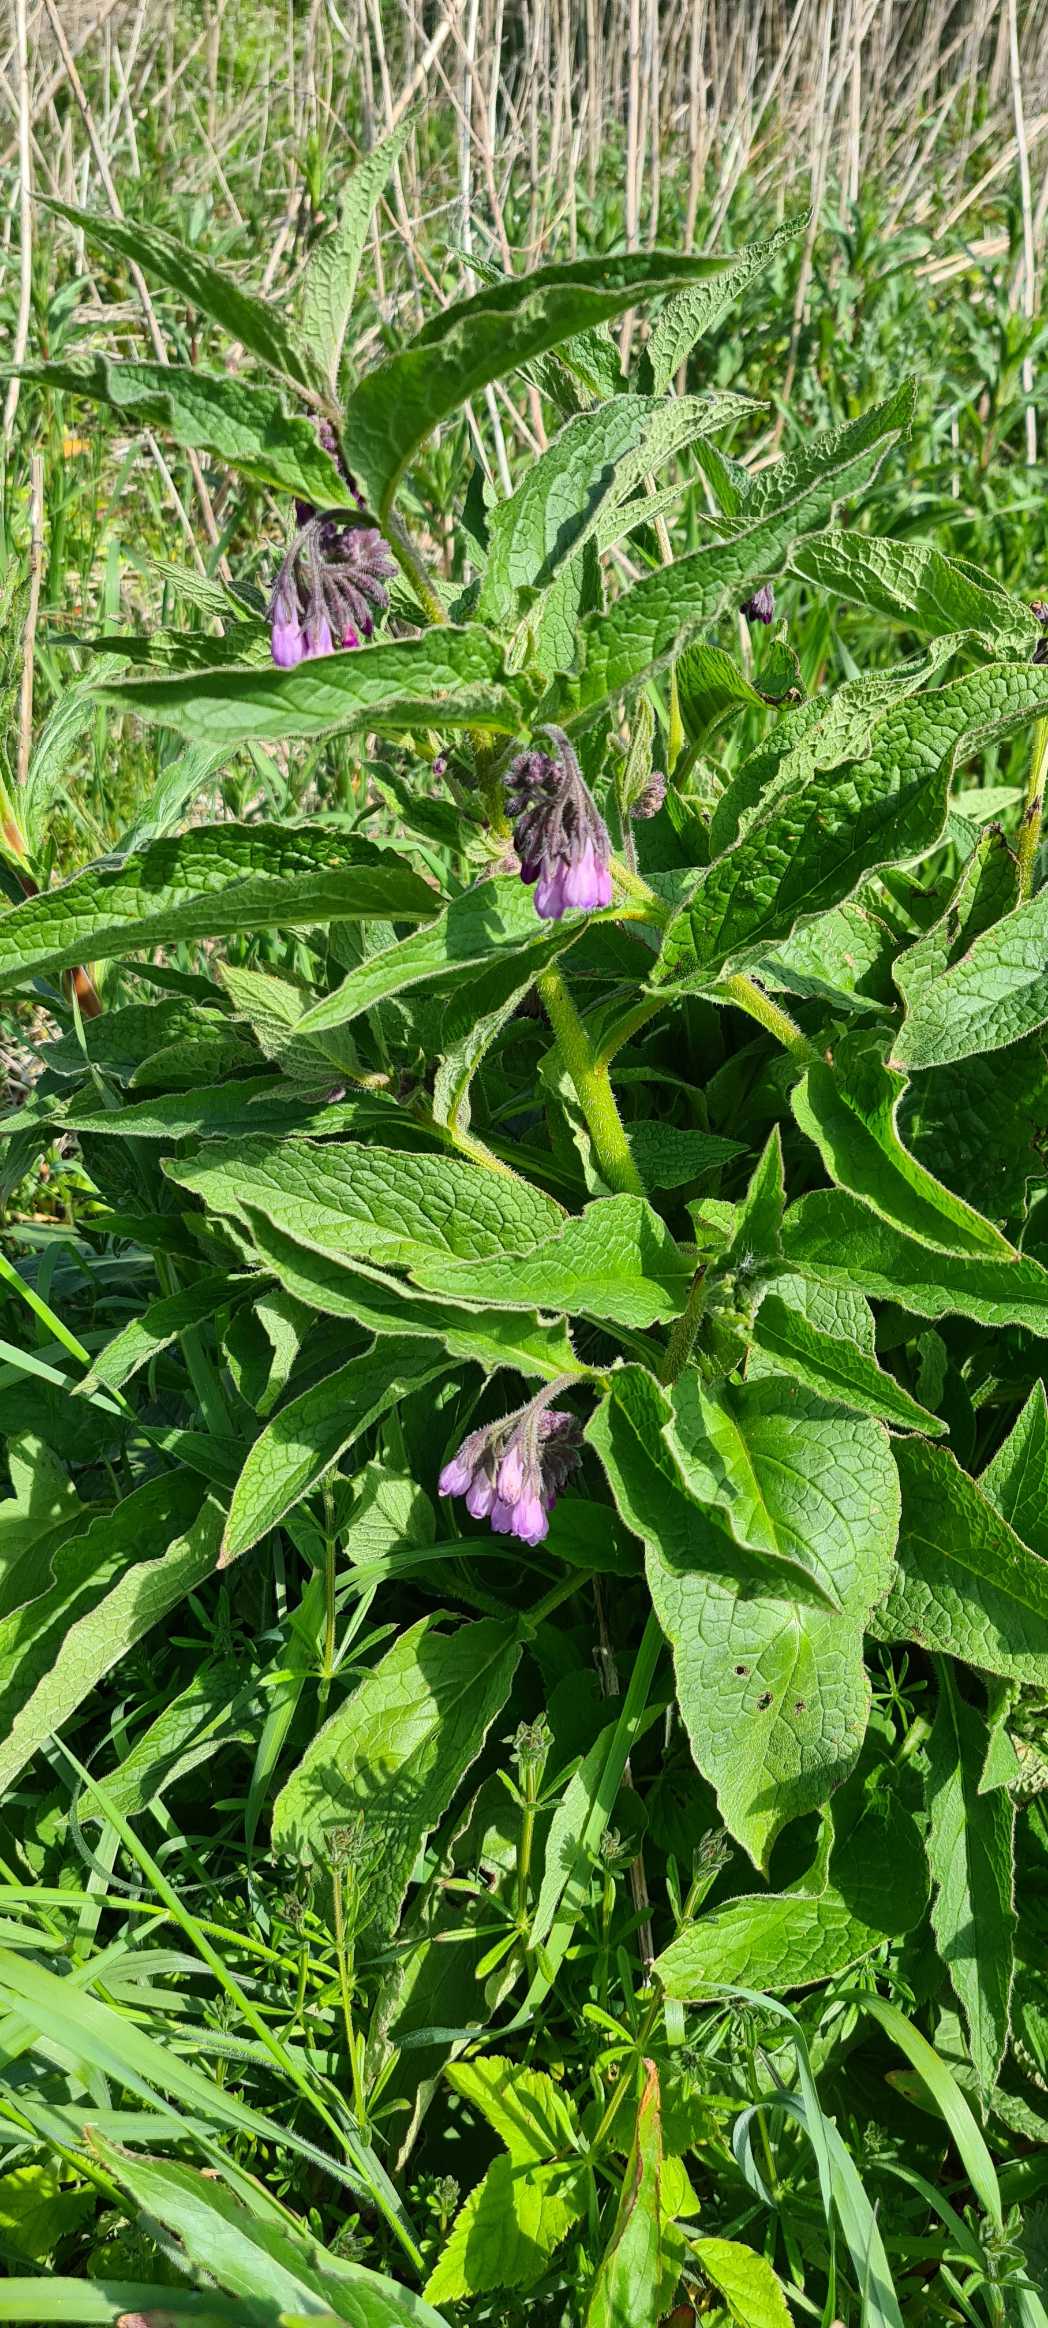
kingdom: Plantae
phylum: Tracheophyta
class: Magnoliopsida
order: Boraginales
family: Boraginaceae
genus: Symphytum
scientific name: Symphytum uplandicum
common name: Foder-kulsukker
